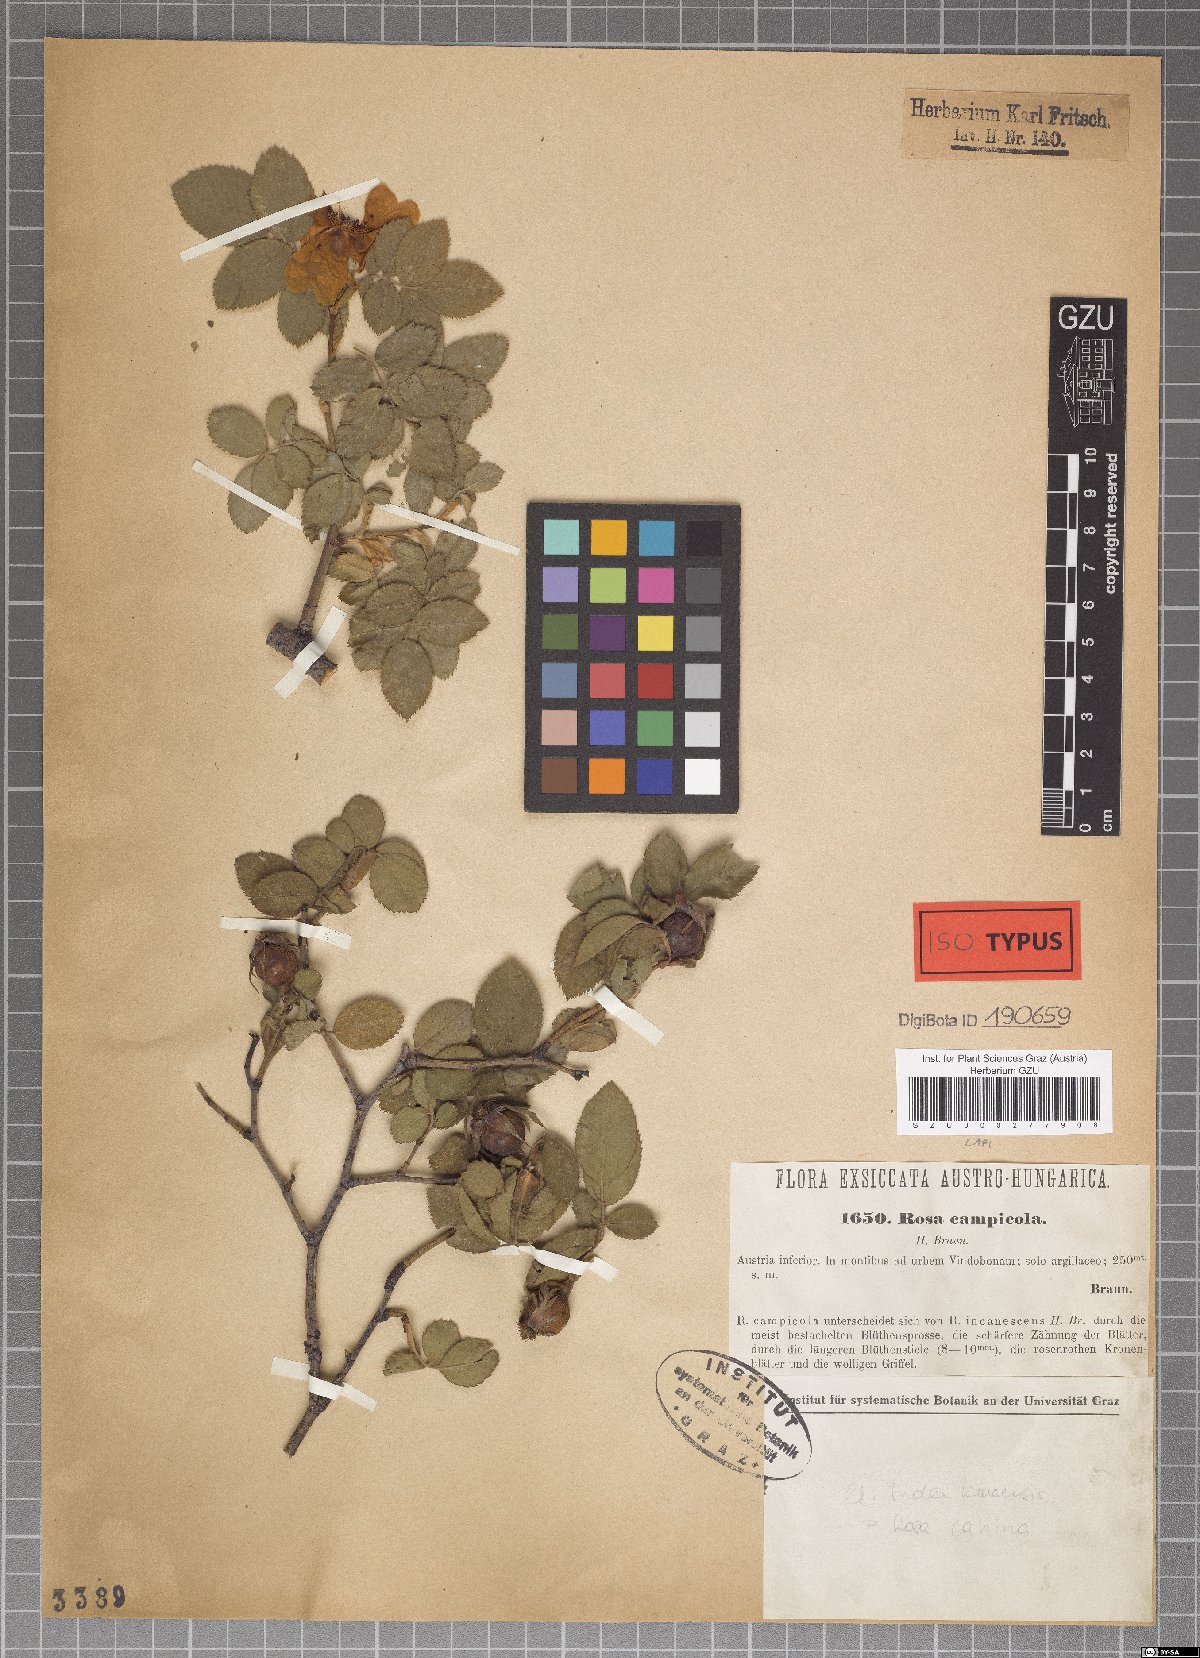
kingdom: Plantae
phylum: Tracheophyta
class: Magnoliopsida
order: Rosales
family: Rosaceae
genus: Rosa
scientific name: Rosa caesia
